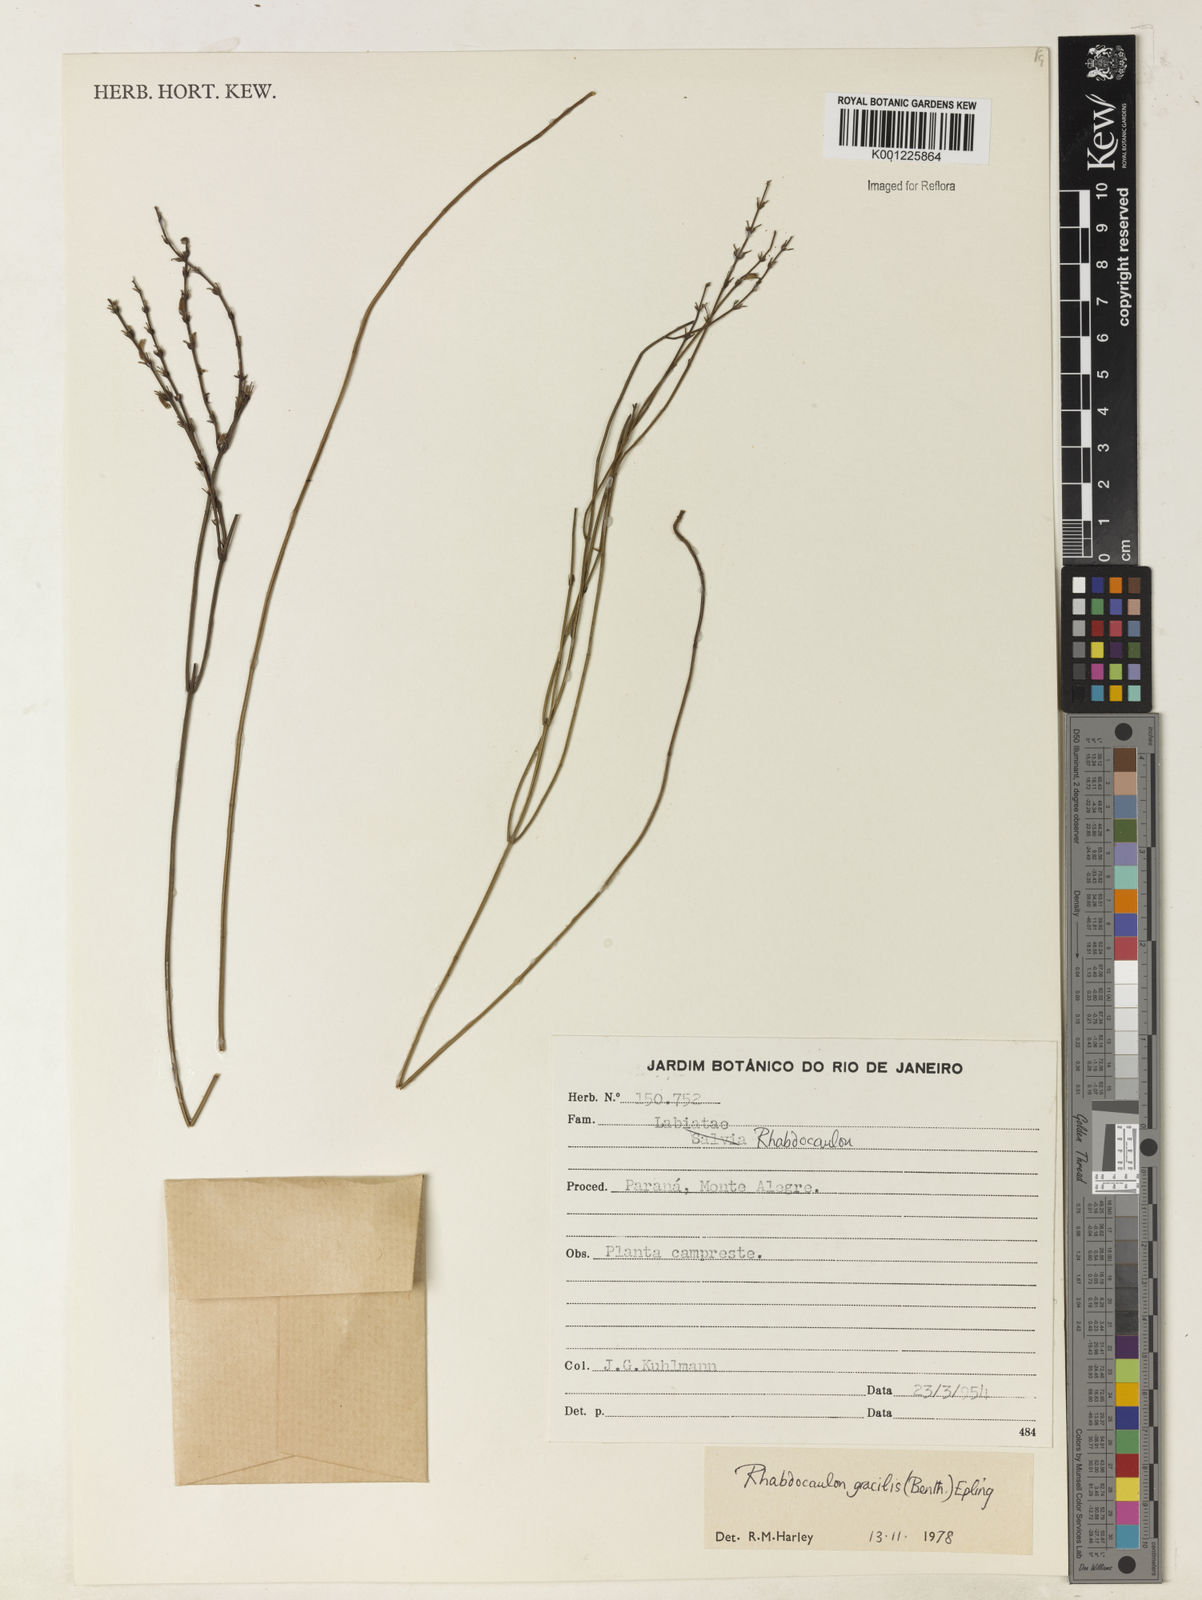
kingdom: Plantae
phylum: Tracheophyta
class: Magnoliopsida
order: Lamiales
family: Lamiaceae
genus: Rhabdocaulon
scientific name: Rhabdocaulon gracile
